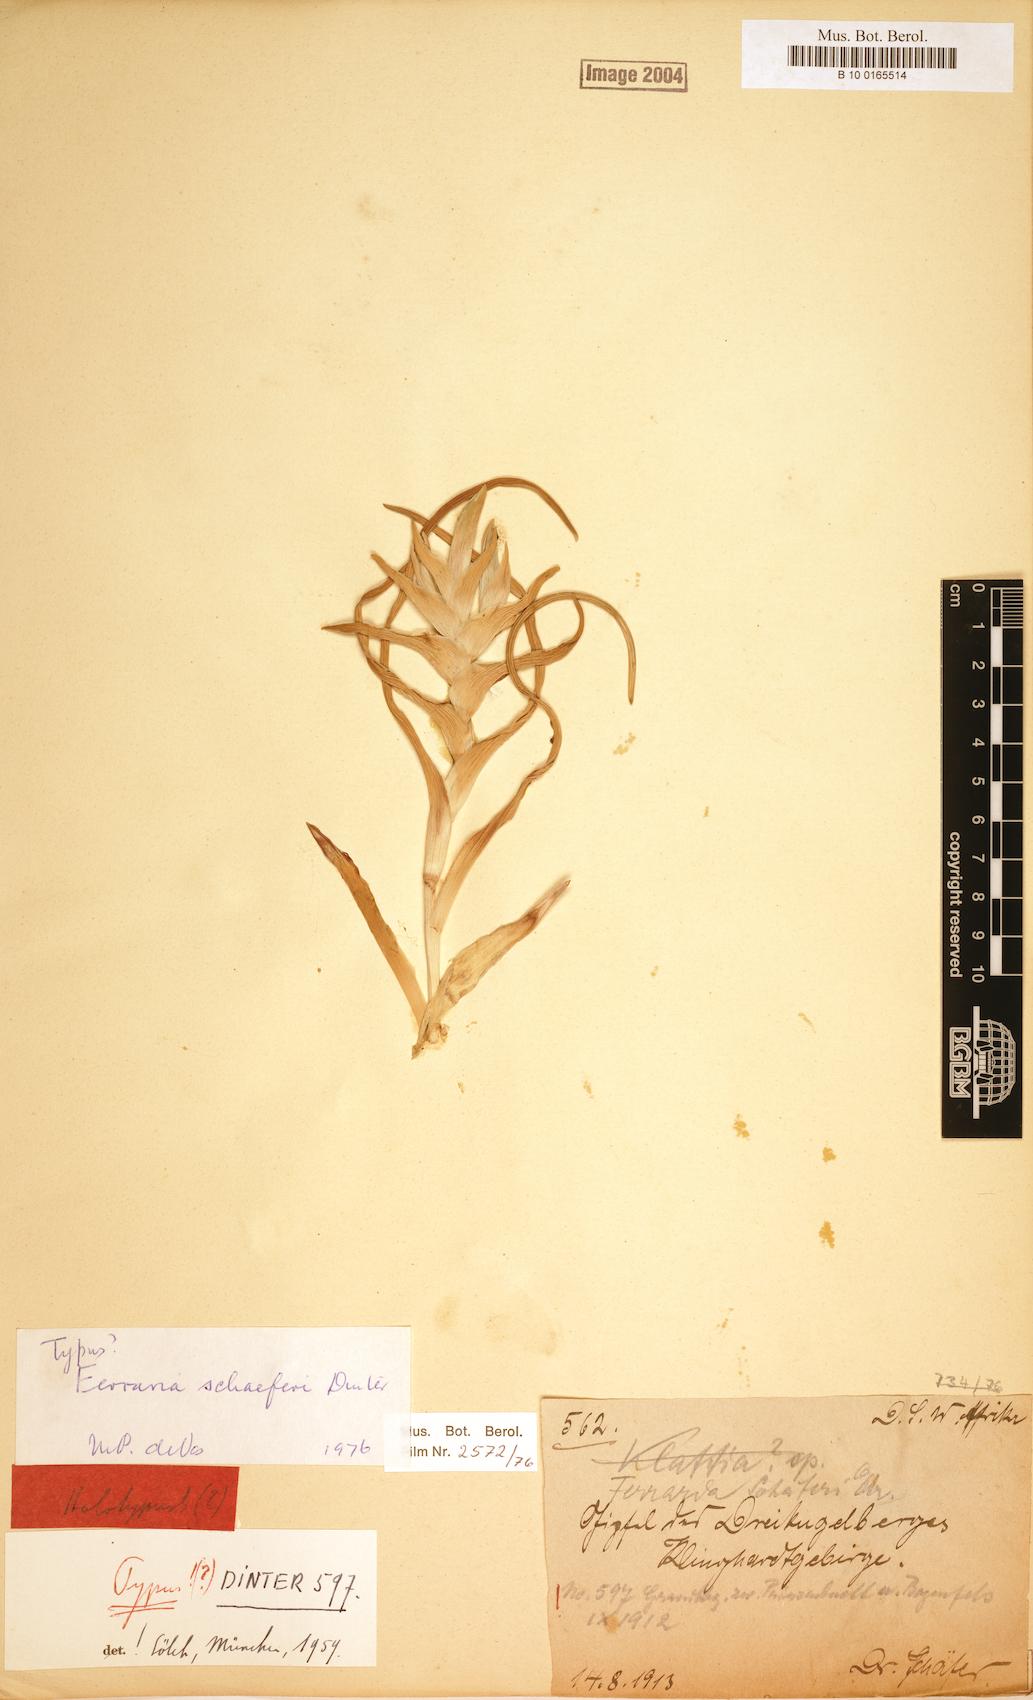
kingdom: Plantae
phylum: Tracheophyta
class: Liliopsida
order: Asparagales
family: Iridaceae
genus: Ferraria
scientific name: Ferraria schaeferi
